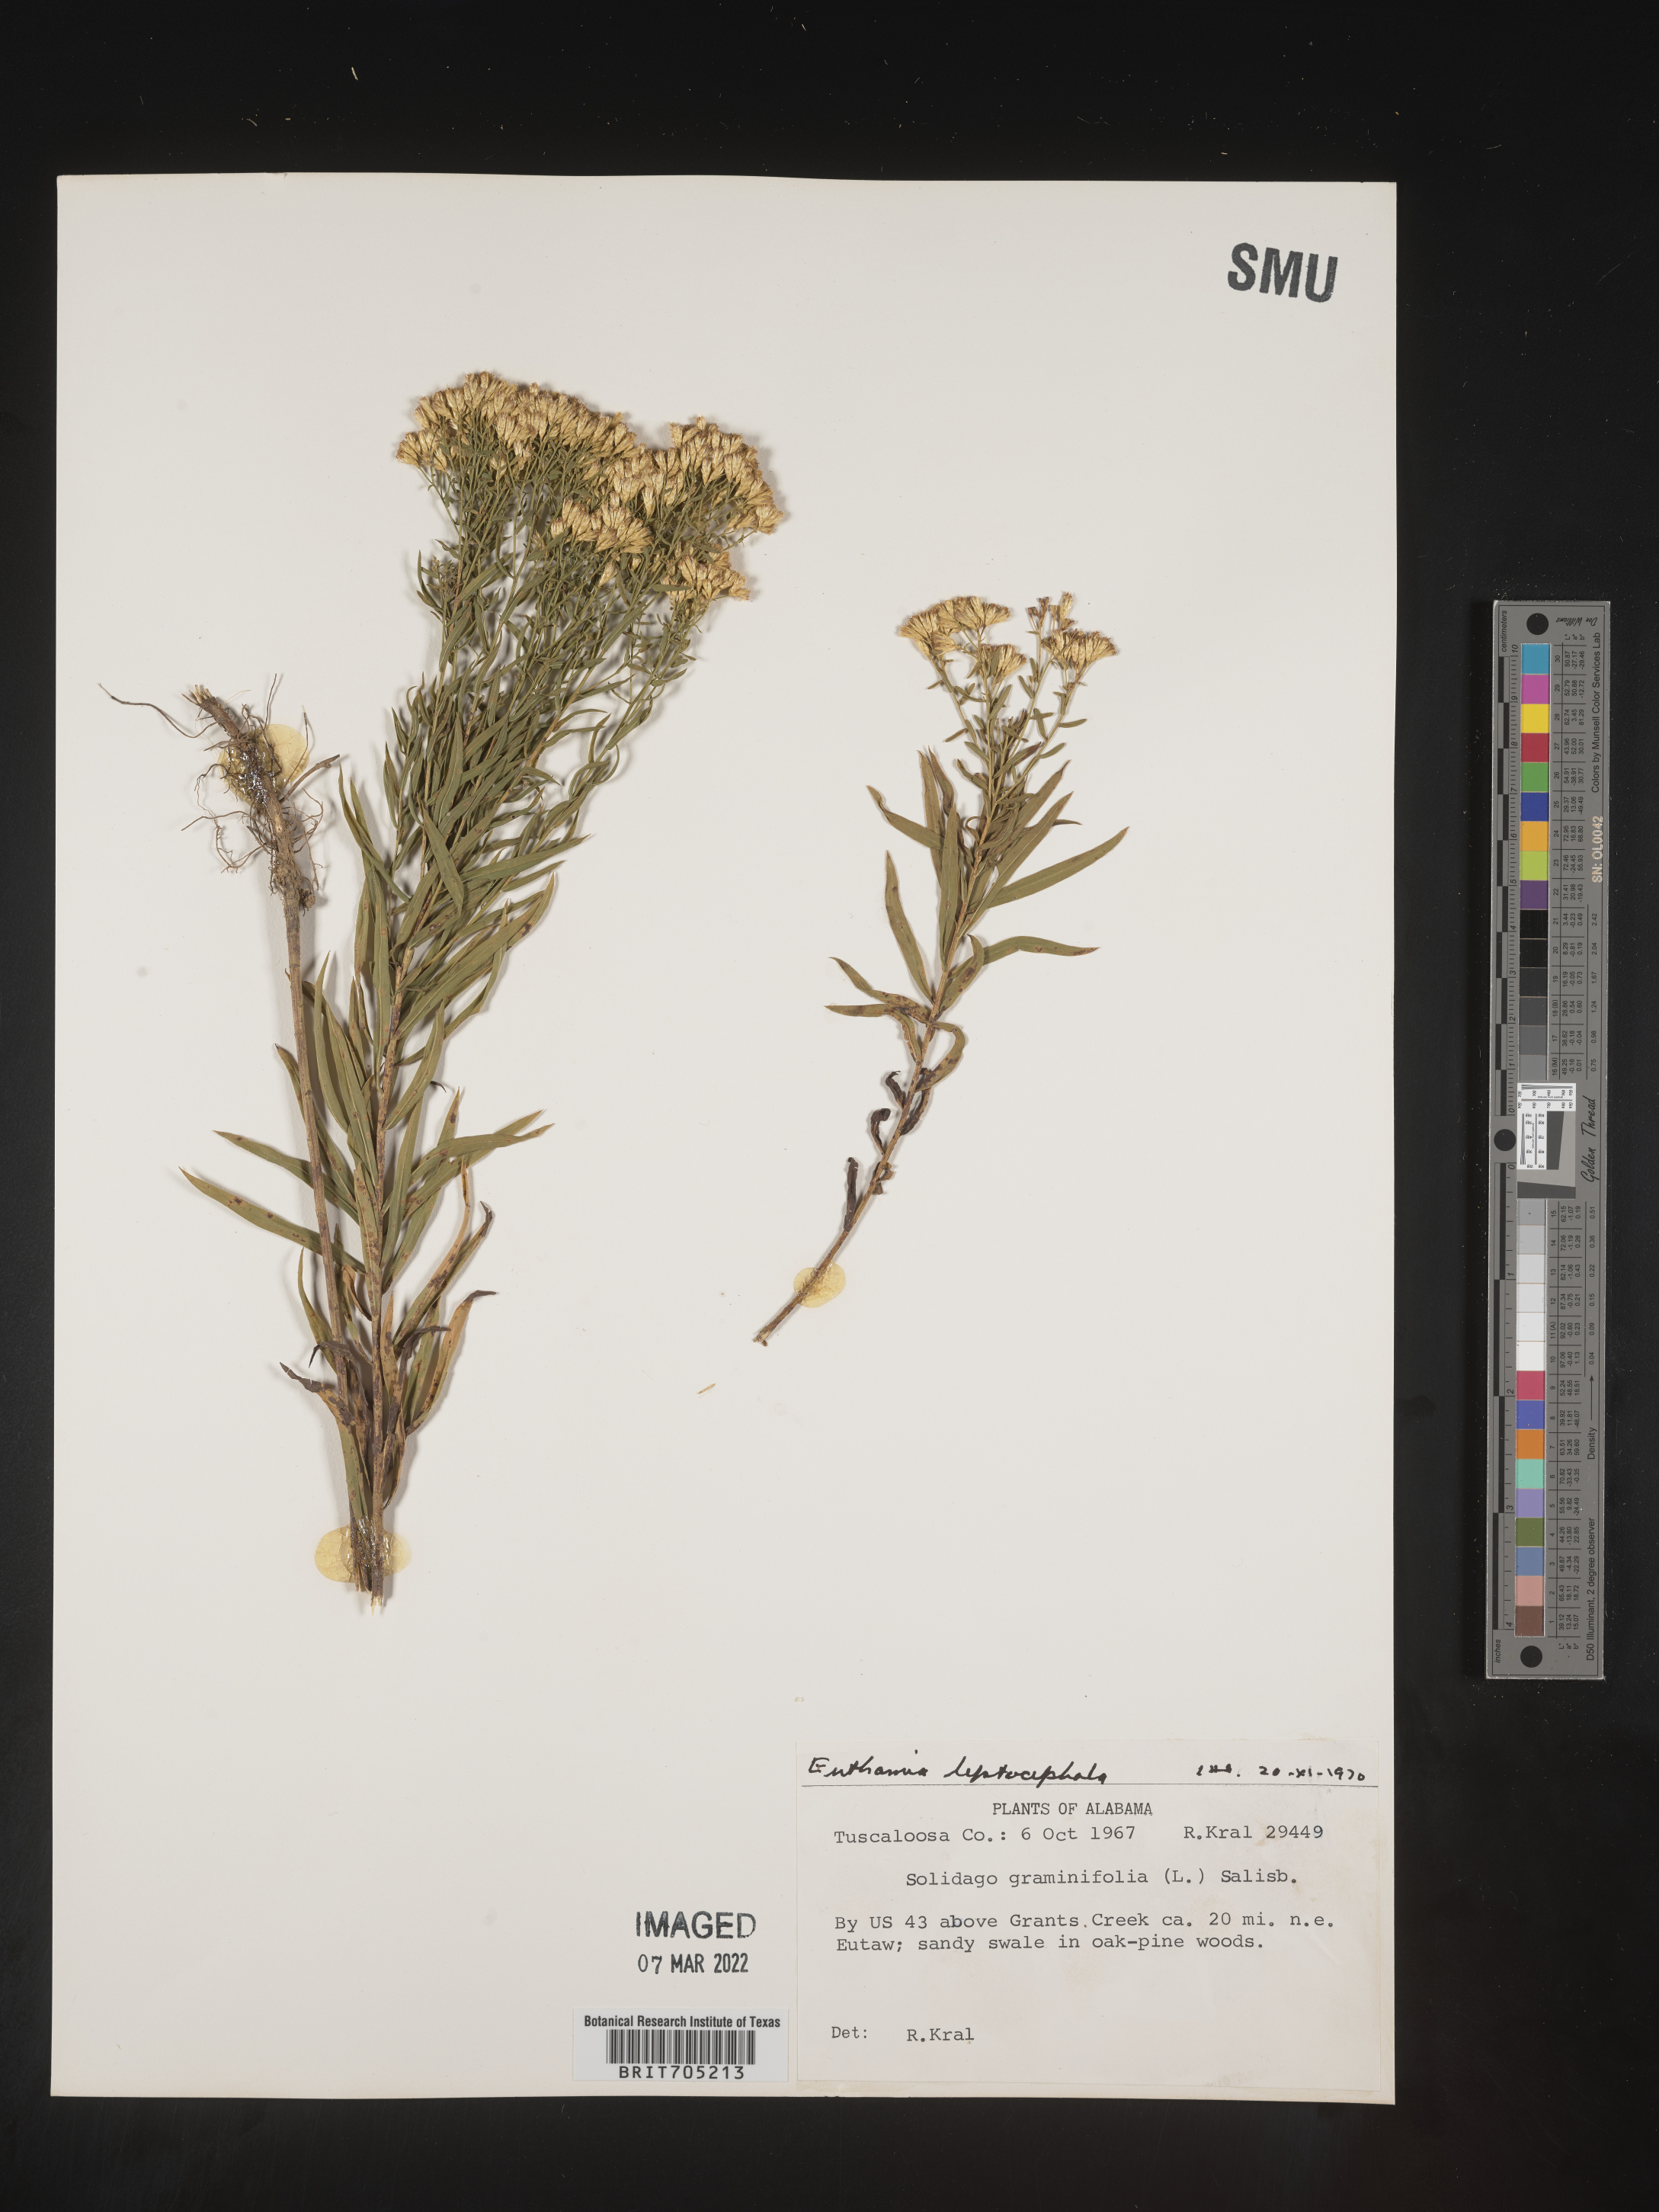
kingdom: Plantae
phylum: Tracheophyta
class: Magnoliopsida
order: Asterales
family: Asteraceae
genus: Euthamia
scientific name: Euthamia leptocephala
